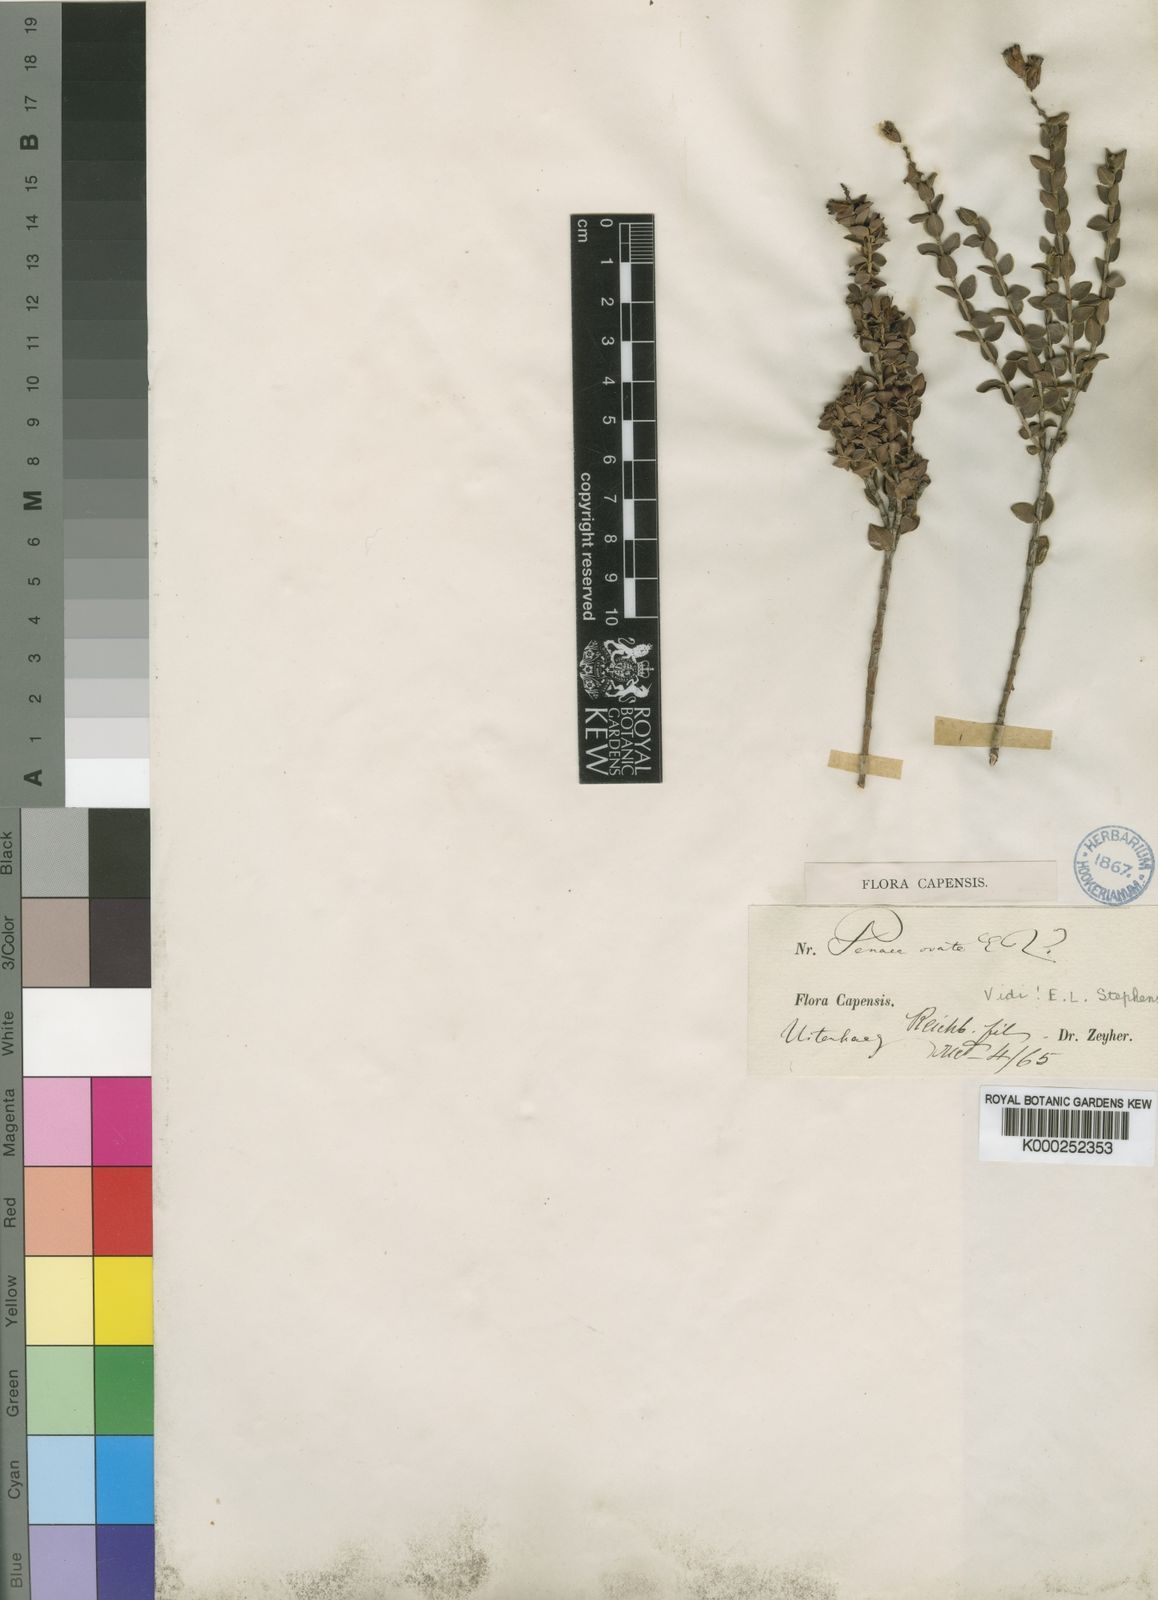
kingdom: Plantae
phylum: Tracheophyta
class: Magnoliopsida
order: Myrtales
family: Penaeaceae
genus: Penaea
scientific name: Penaea cneorum
